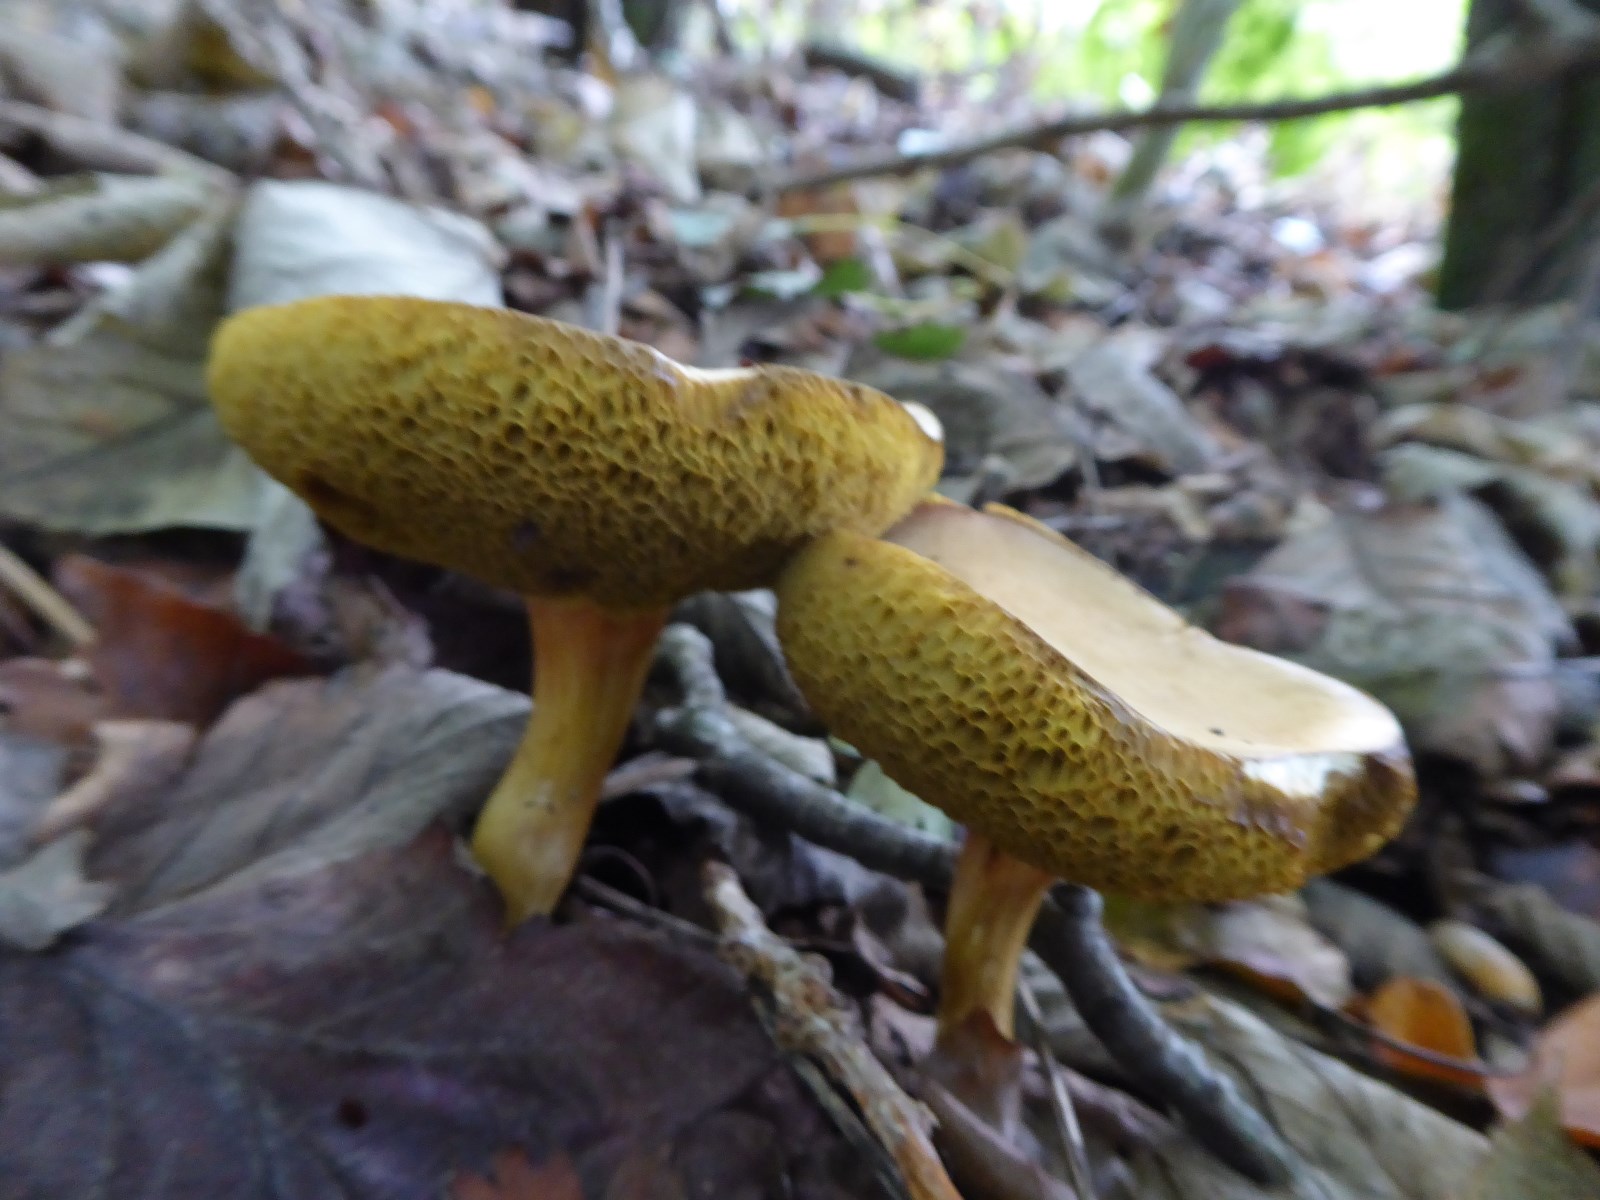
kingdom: Fungi
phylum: Basidiomycota
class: Agaricomycetes
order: Boletales
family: Boletaceae
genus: Hortiboletus
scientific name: Hortiboletus engelii
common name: fersken-rørhat
